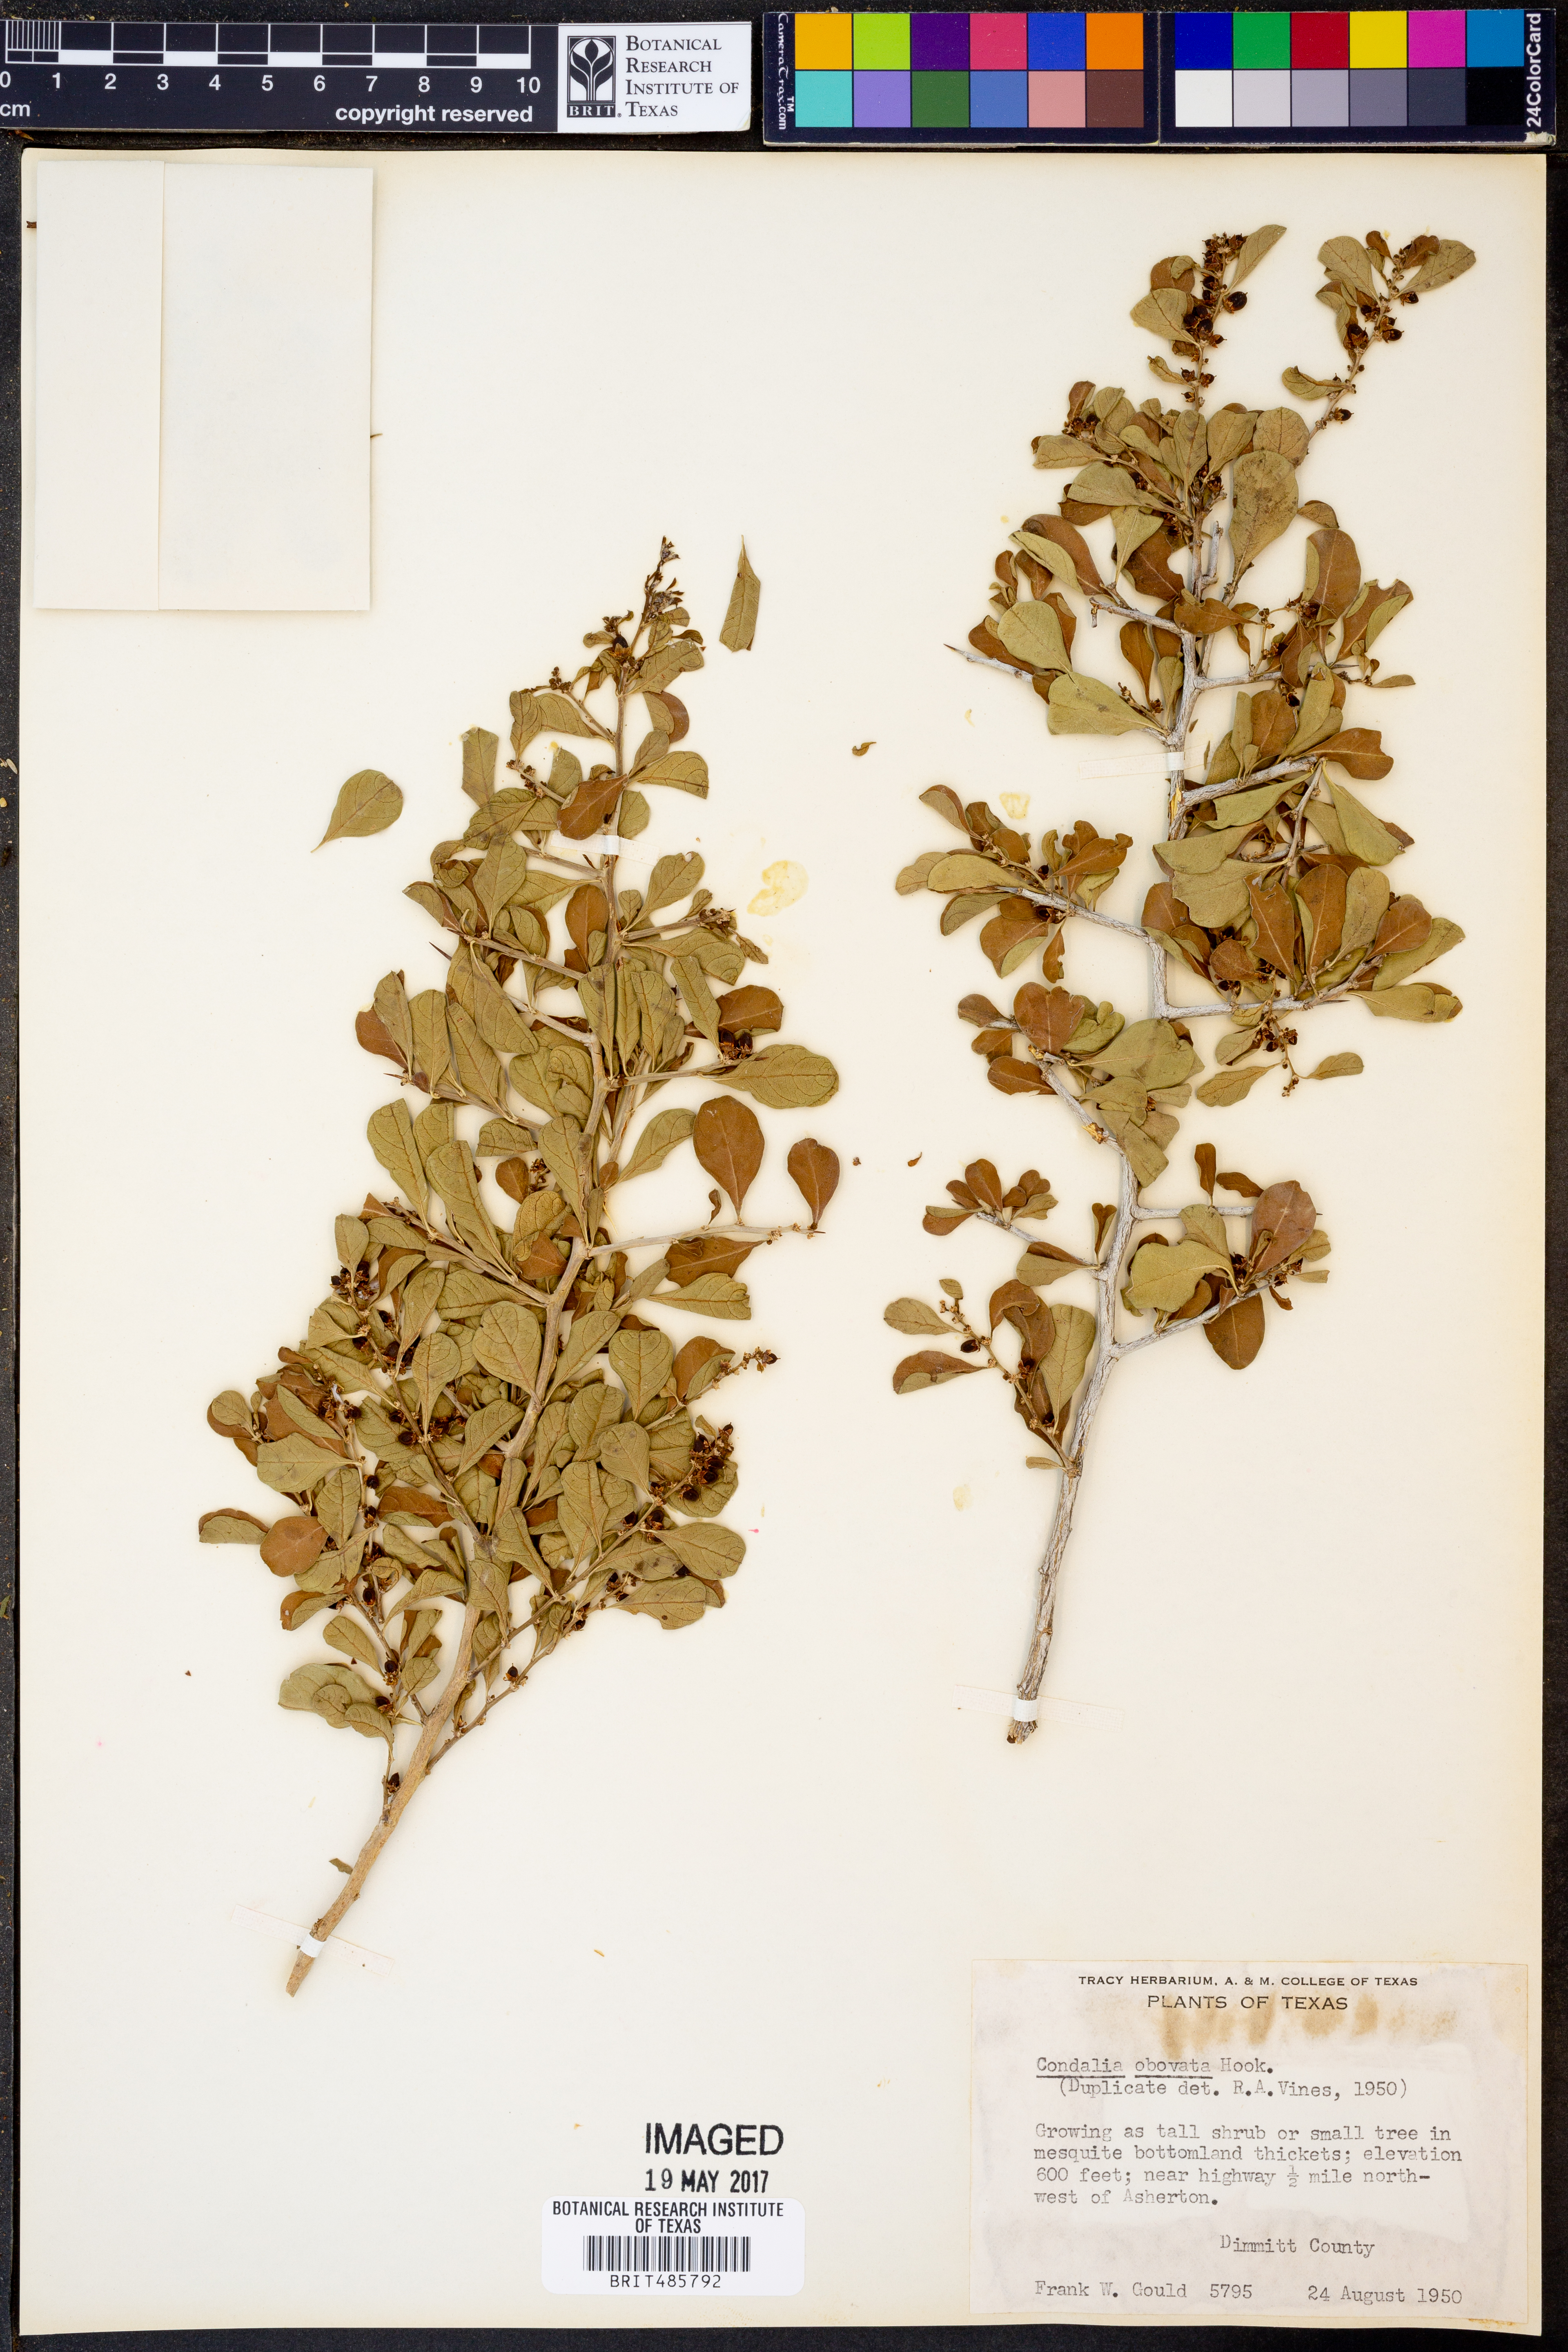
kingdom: Plantae
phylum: Tracheophyta
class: Magnoliopsida
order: Rosales
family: Rhamnaceae
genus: Condalia
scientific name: Condalia hookeri
